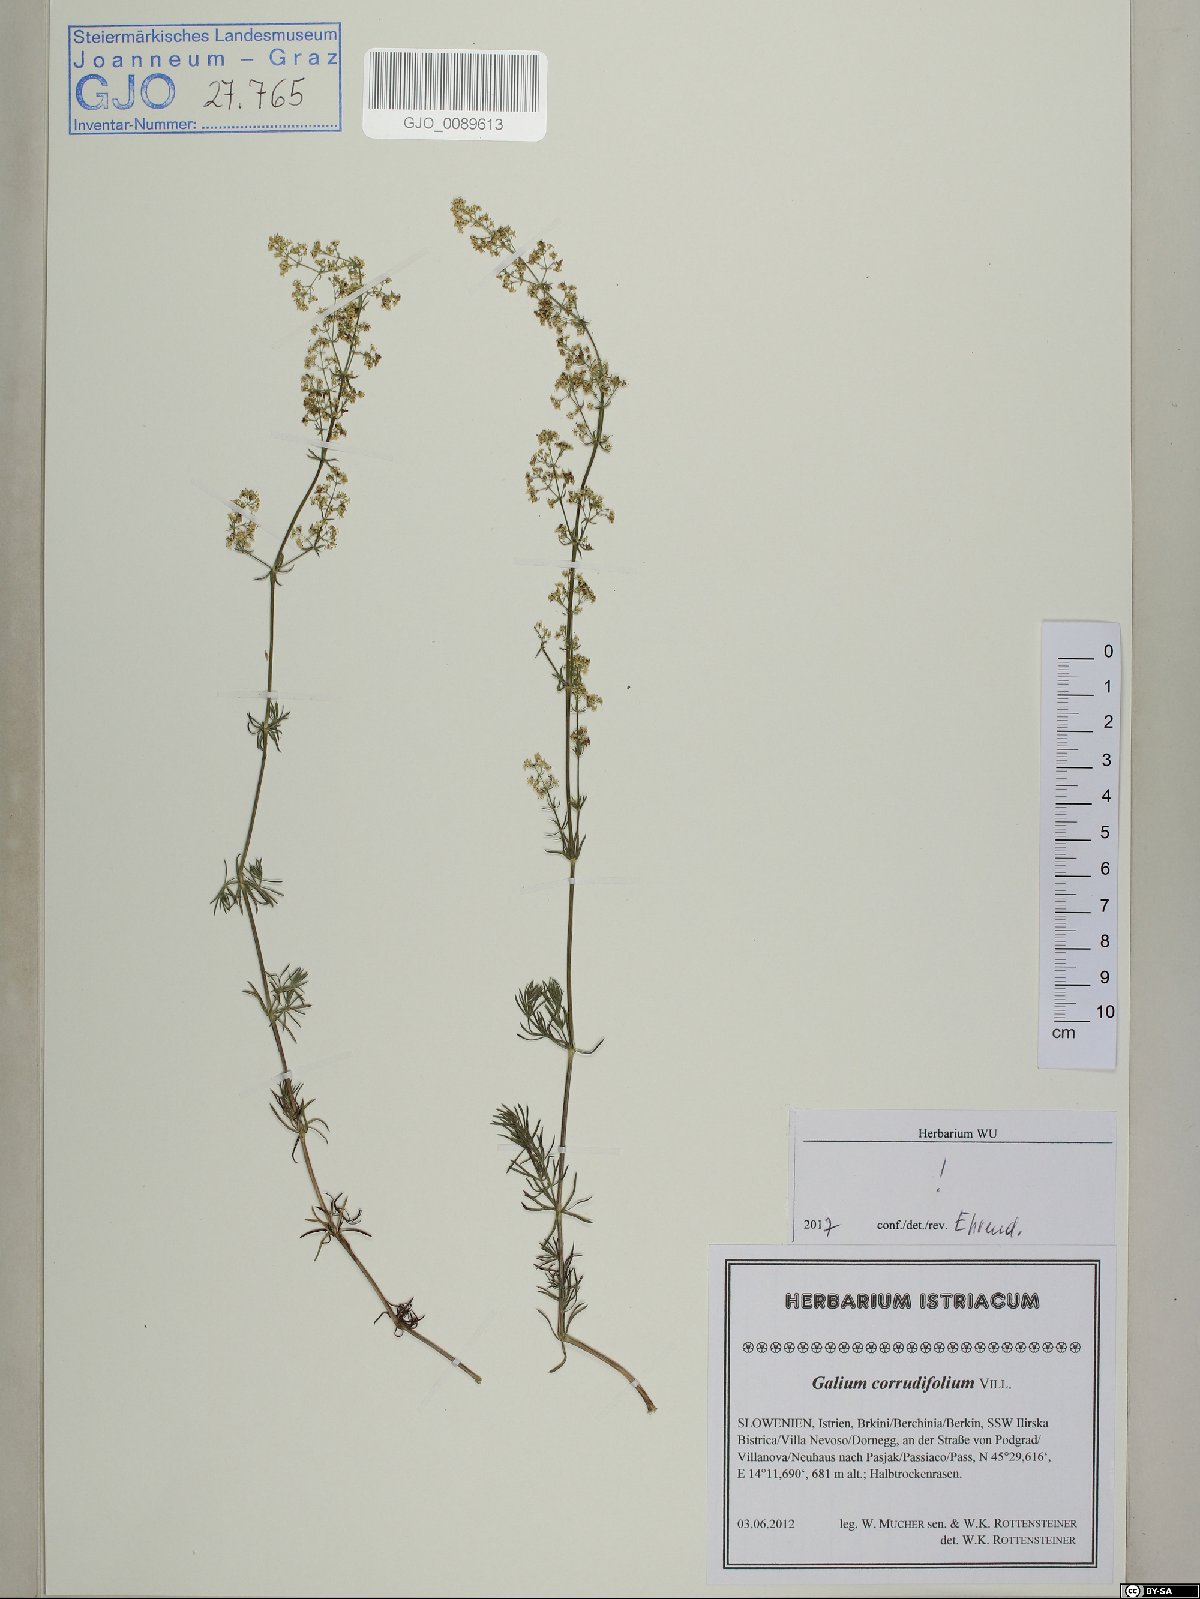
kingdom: Plantae
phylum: Tracheophyta
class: Magnoliopsida
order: Gentianales
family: Rubiaceae
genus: Galium
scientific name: Galium lucidum
